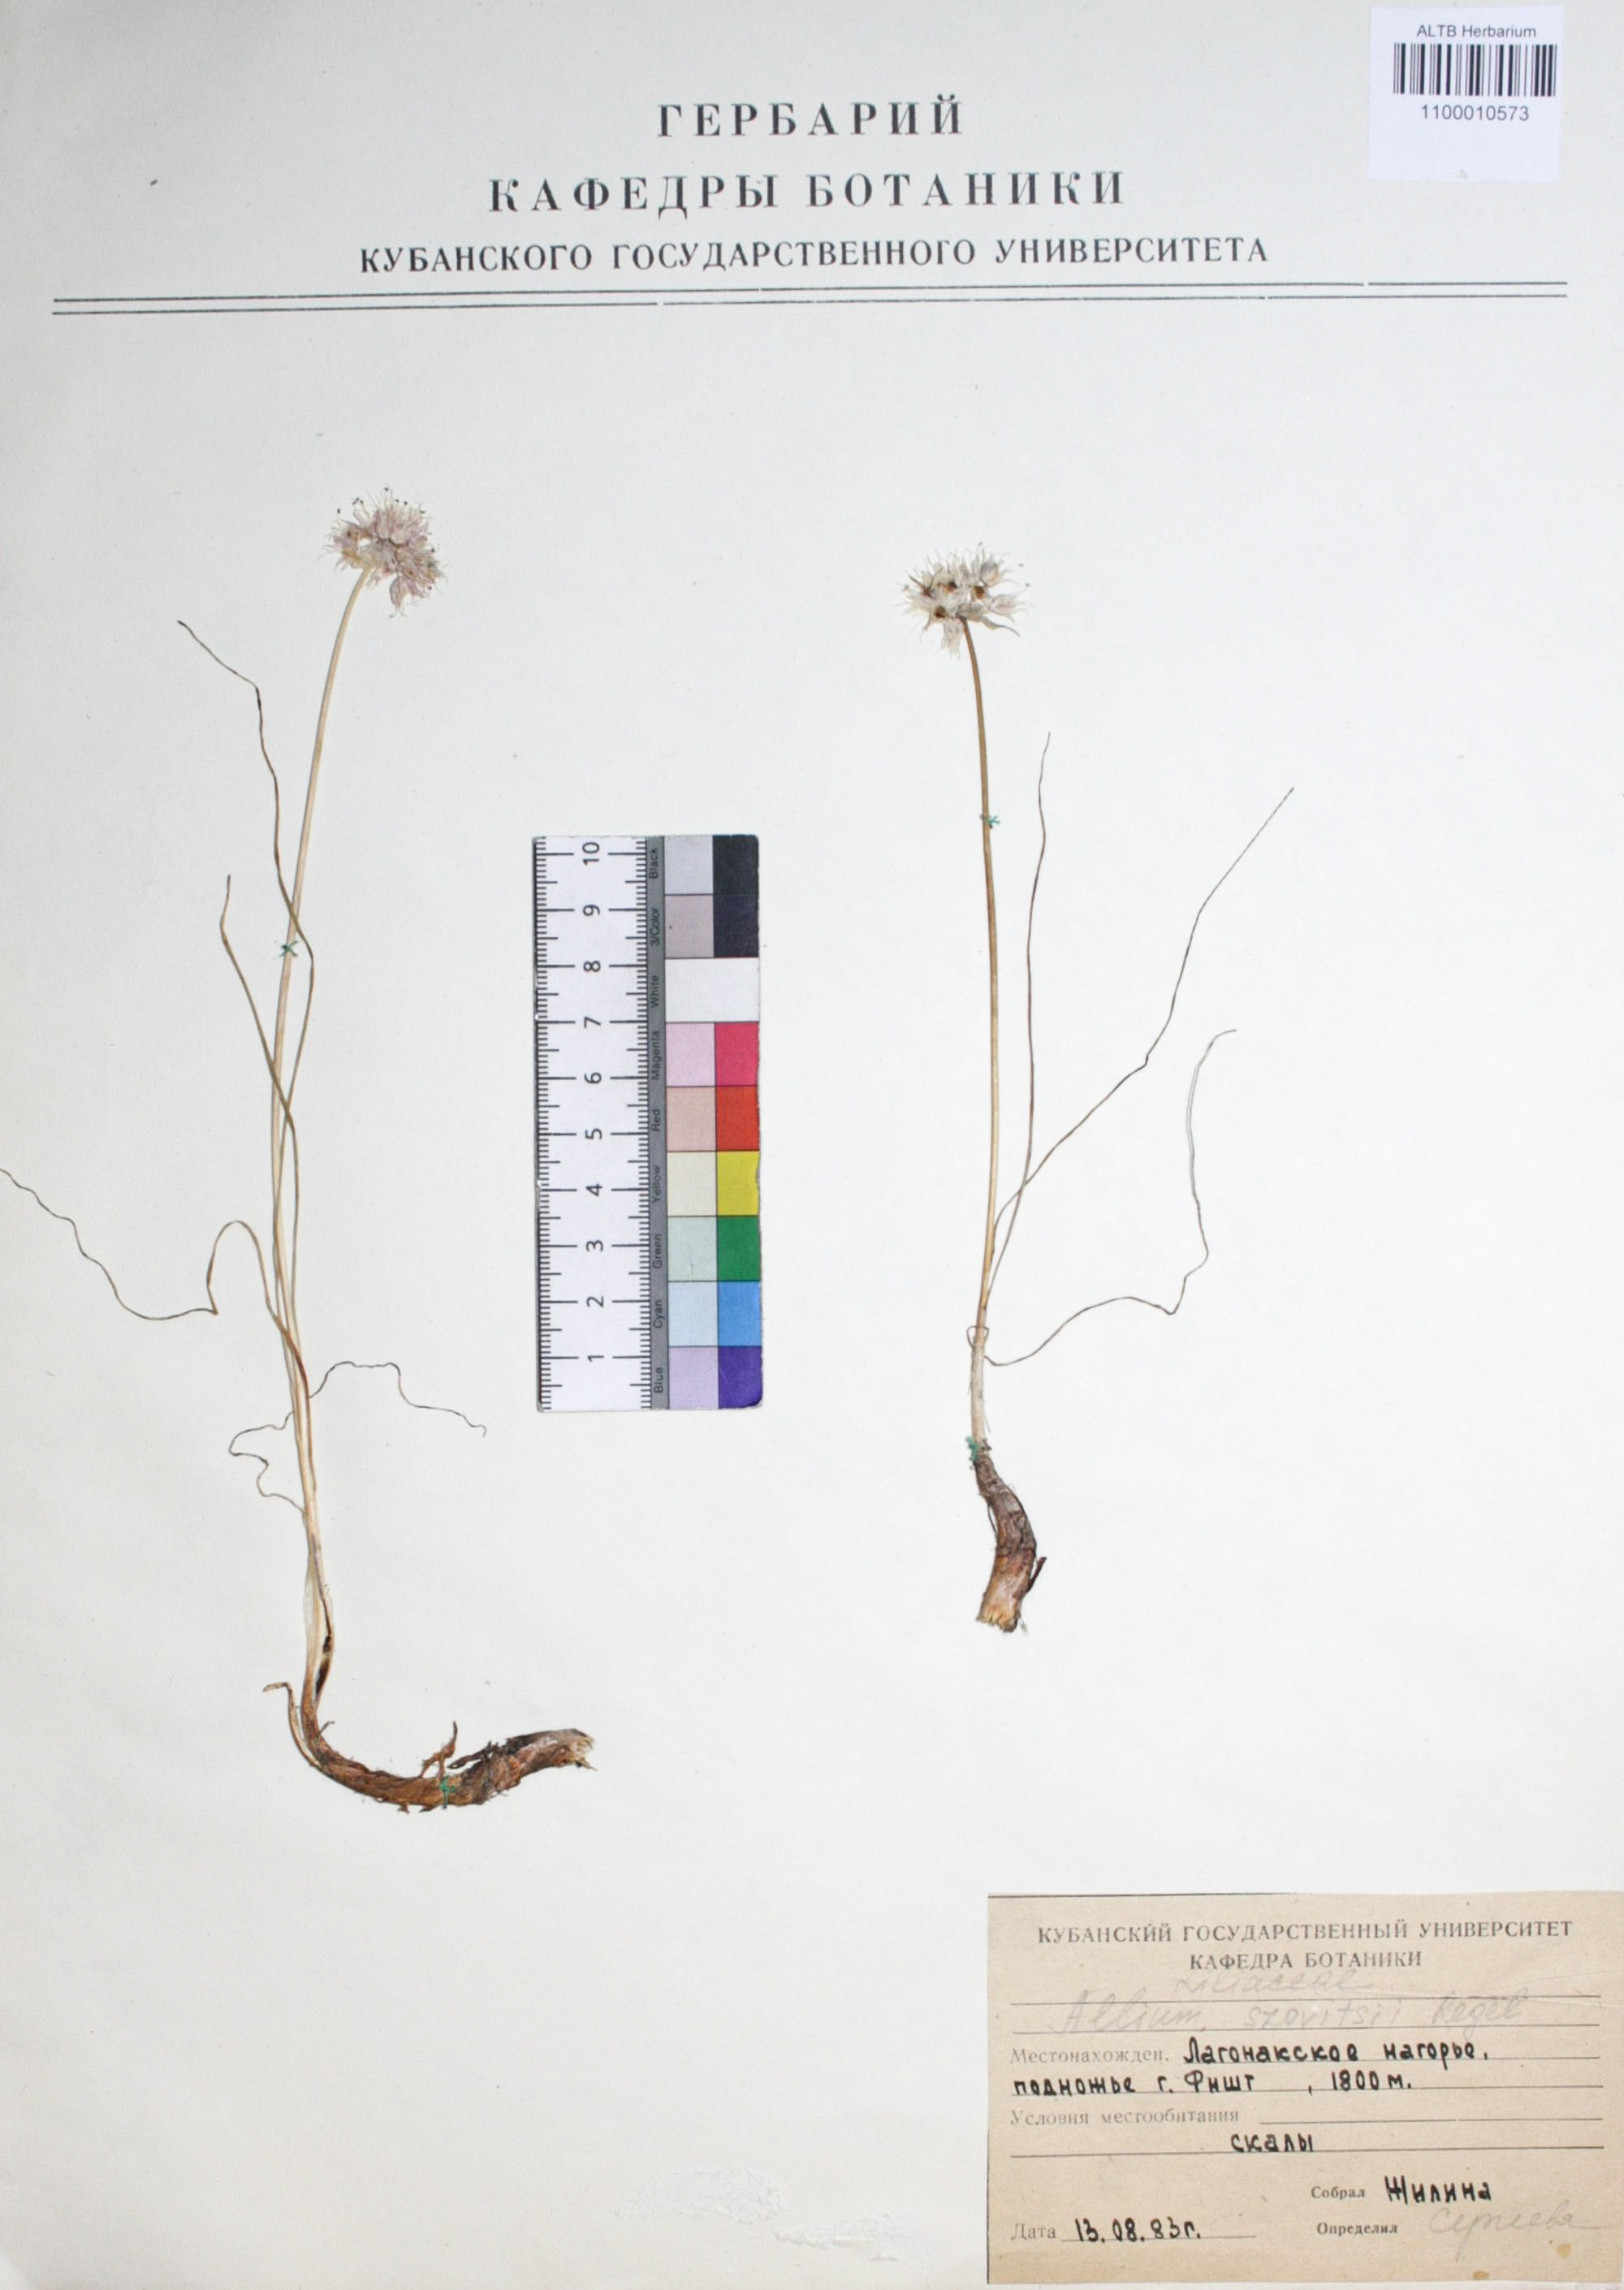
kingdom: Plantae
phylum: Tracheophyta
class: Liliopsida
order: Asparagales
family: Amaryllidaceae
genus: Allium
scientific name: Allium szovitsii
